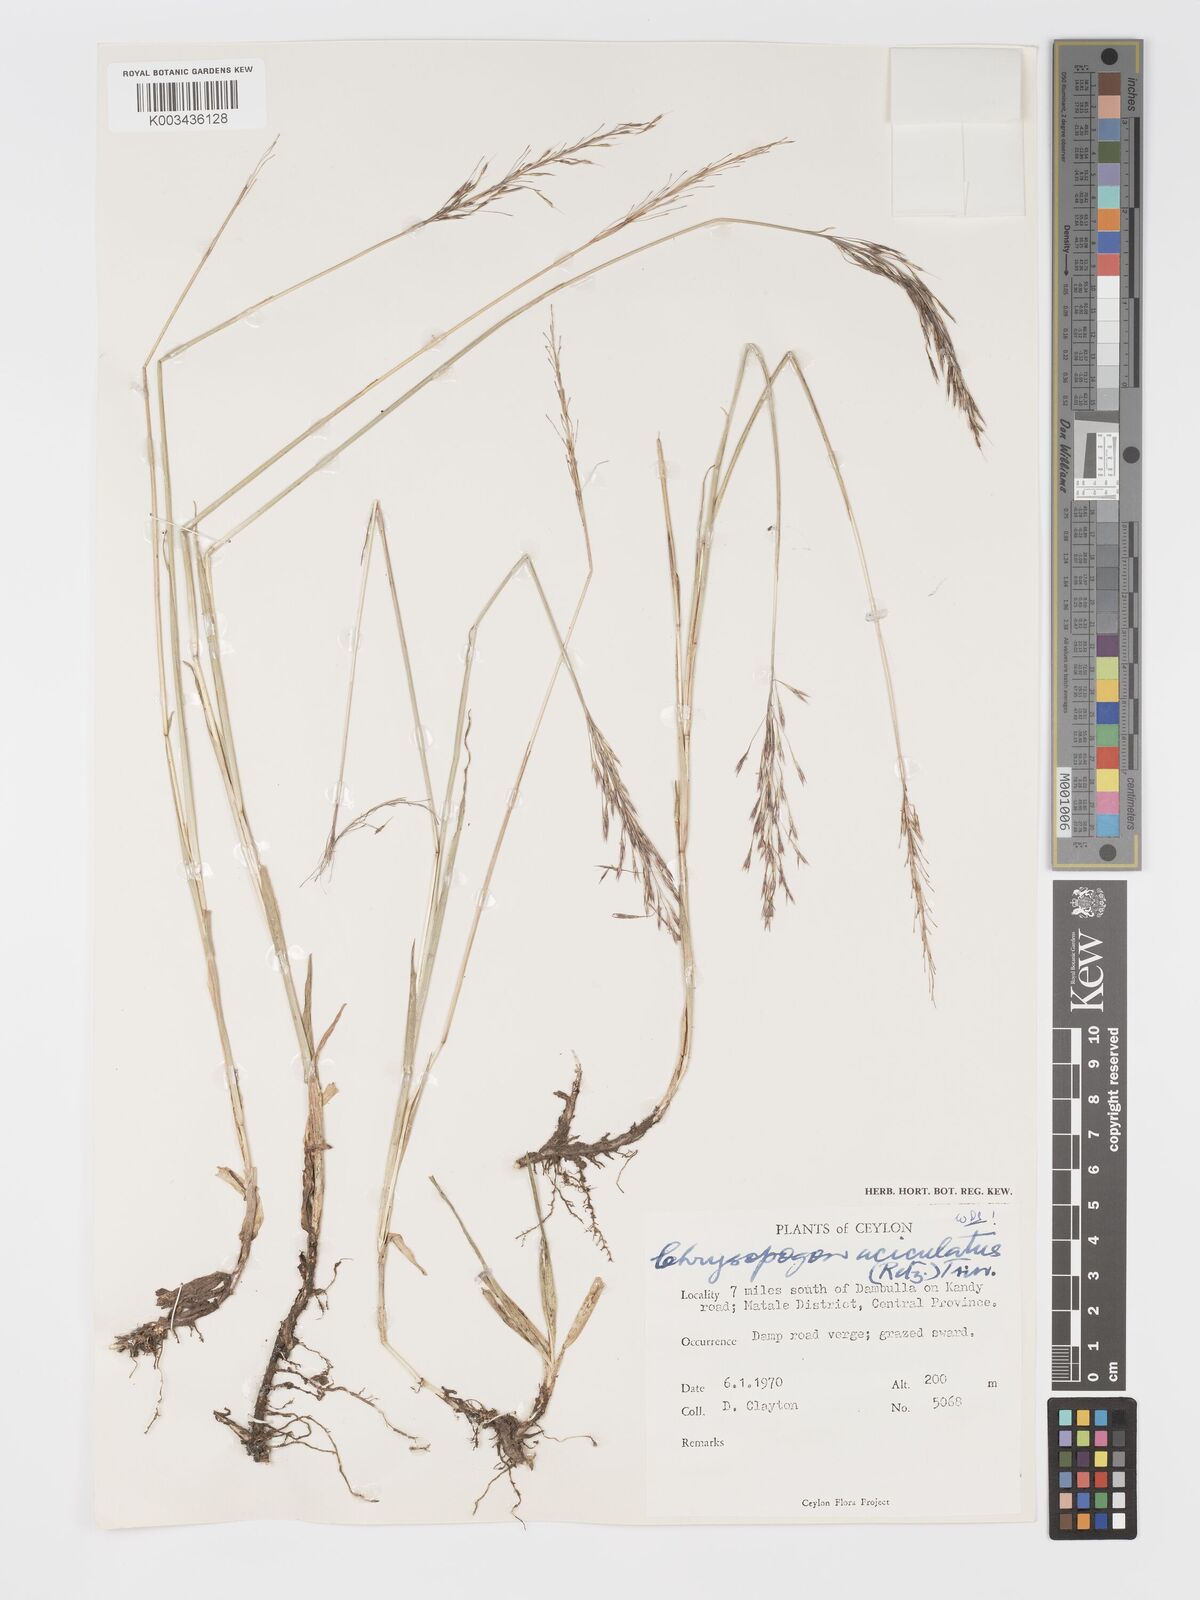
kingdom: Plantae
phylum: Tracheophyta
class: Liliopsida
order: Poales
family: Poaceae
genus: Chrysopogon
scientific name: Chrysopogon aciculatus
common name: Pilipiliula
